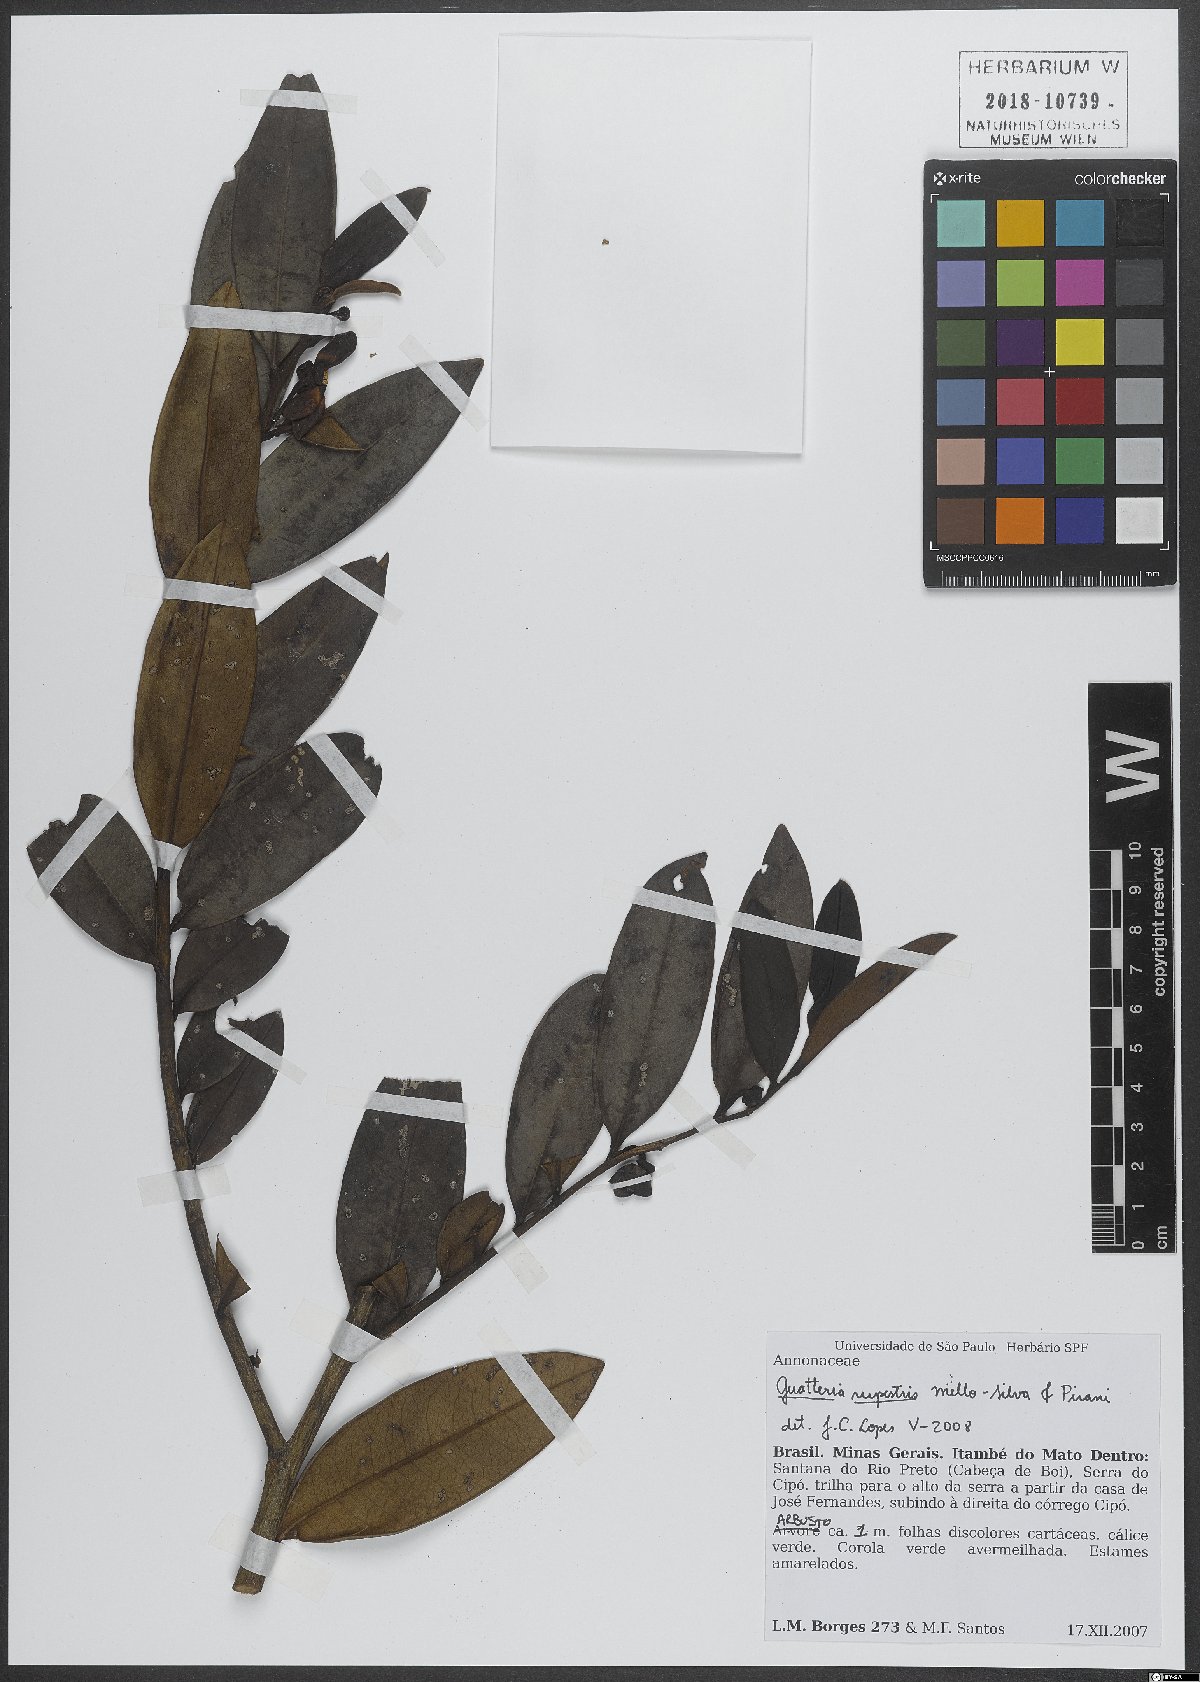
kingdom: Plantae
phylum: Tracheophyta
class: Magnoliopsida
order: Magnoliales
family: Annonaceae
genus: Guatteria
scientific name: Guatteria rupestris
